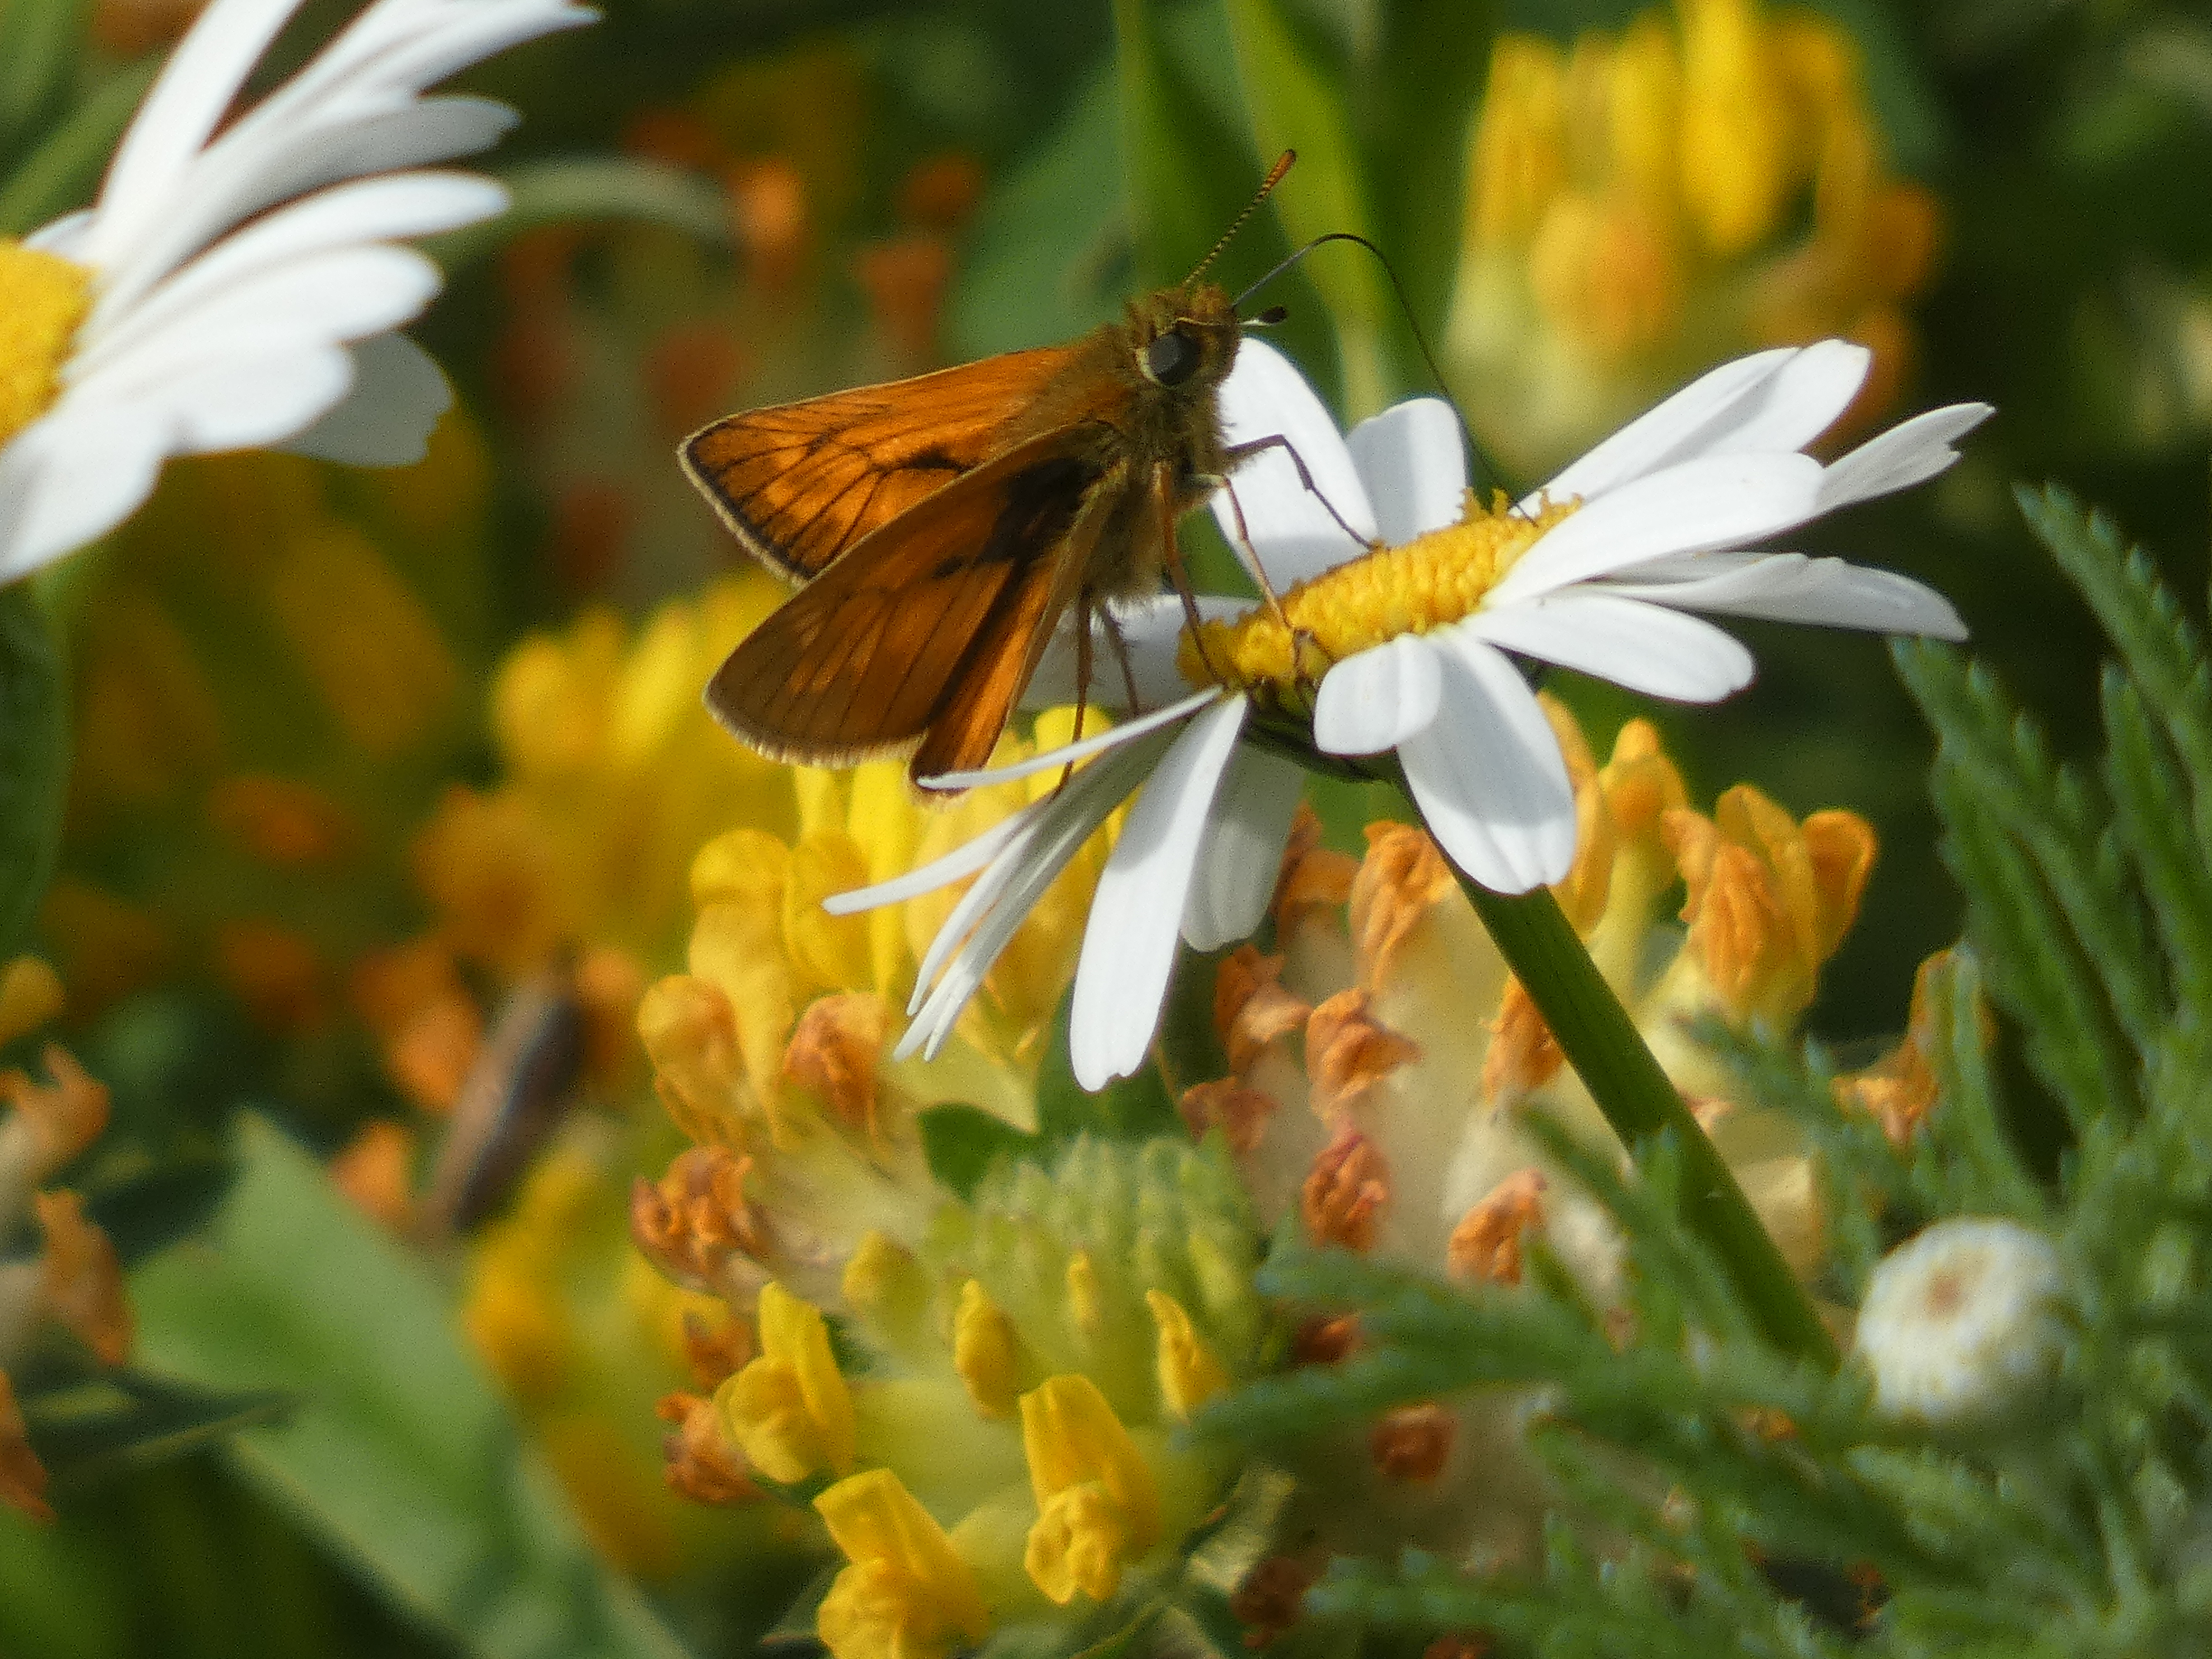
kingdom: Animalia
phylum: Arthropoda
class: Insecta
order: Lepidoptera
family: Hesperiidae
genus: Ochlodes
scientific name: Ochlodes venata
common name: Stor bredpande
